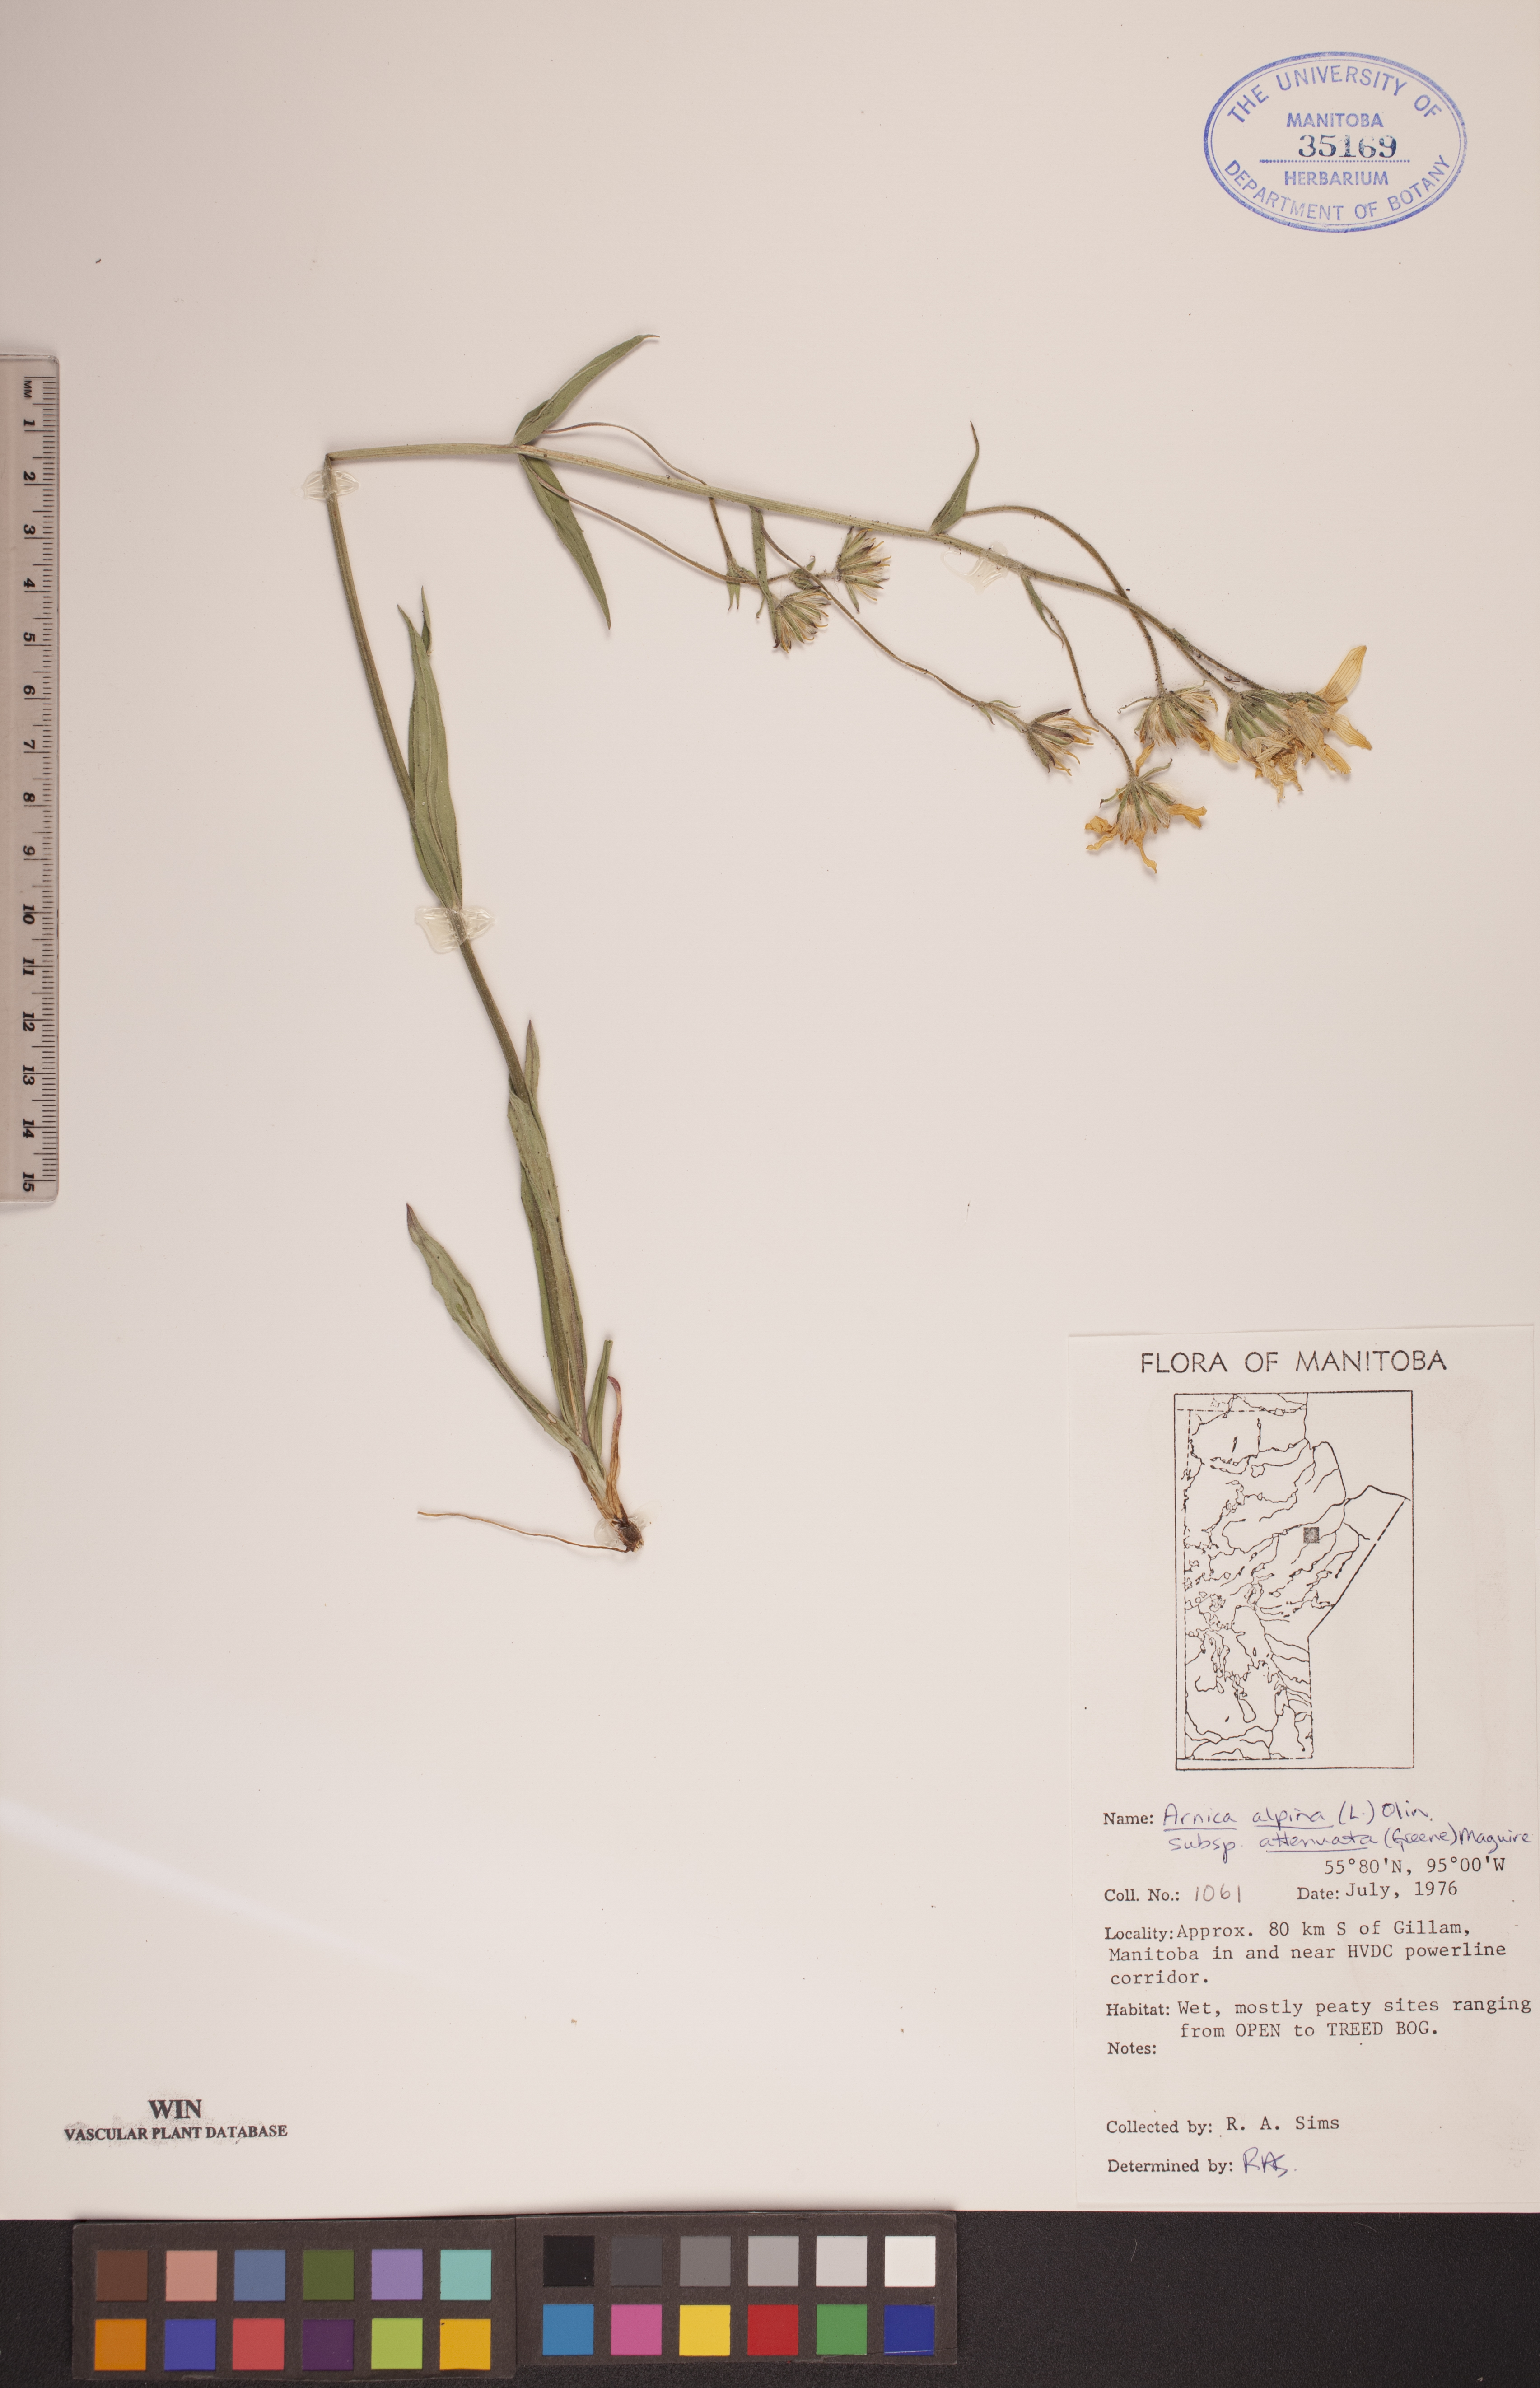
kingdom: Plantae
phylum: Tracheophyta
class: Magnoliopsida
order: Asterales
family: Asteraceae
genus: Arnica
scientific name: Arnica angustifolia
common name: Arctic arnica
